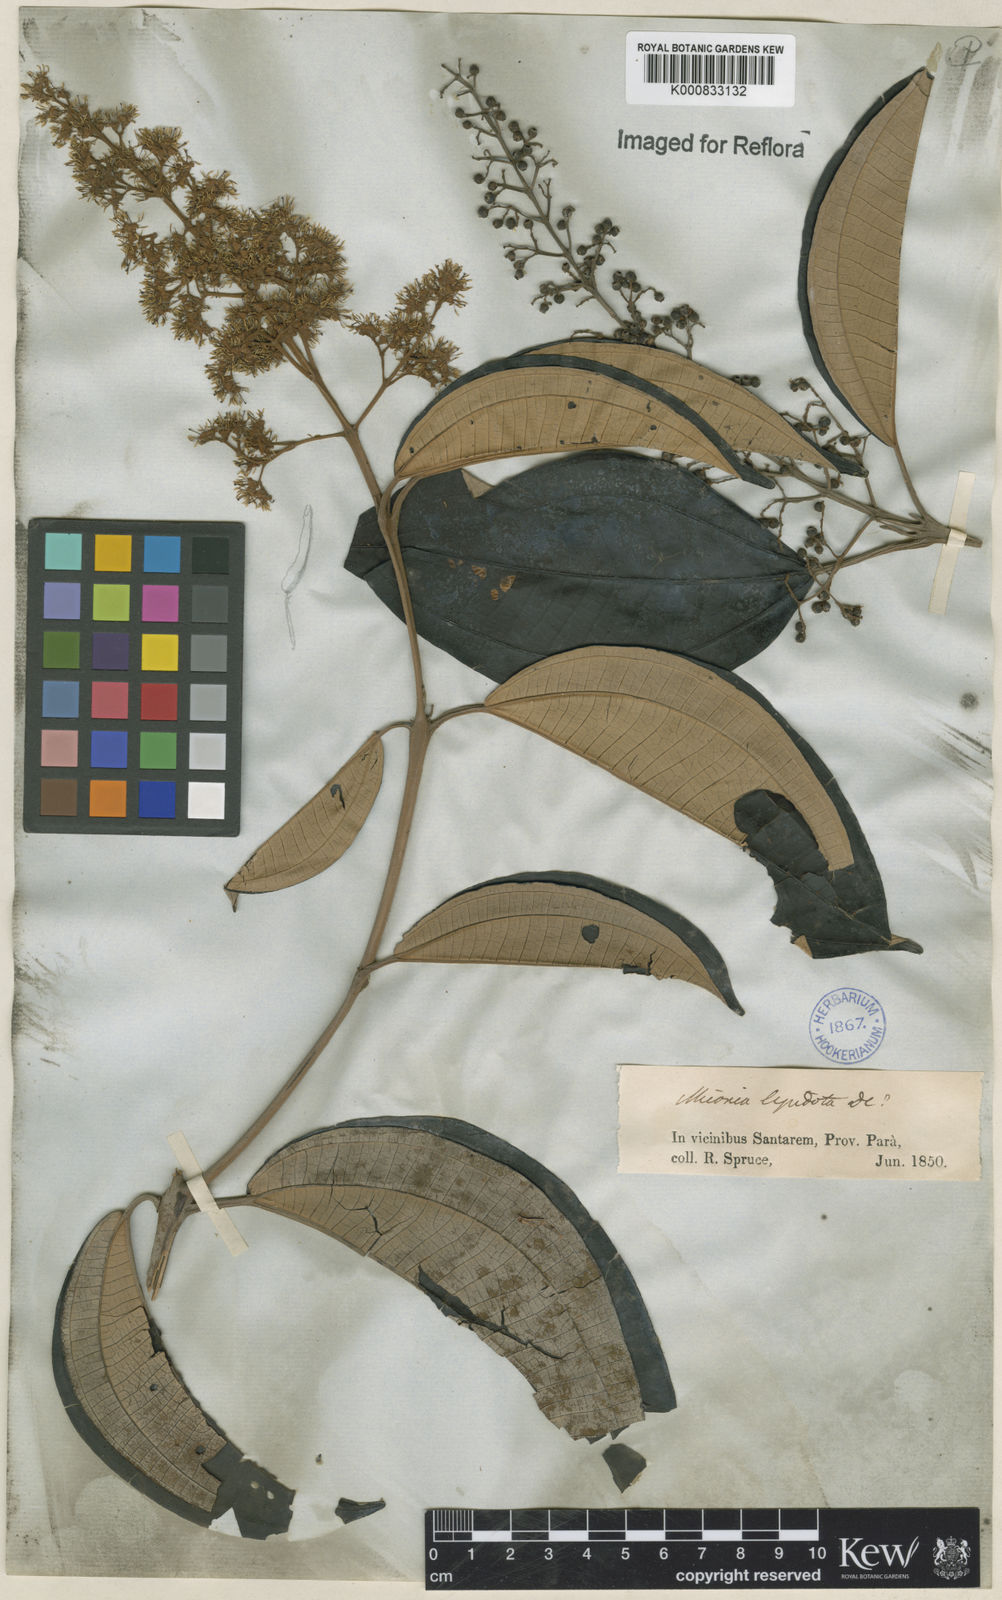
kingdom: Plantae
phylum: Tracheophyta
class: Magnoliopsida
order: Myrtales
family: Melastomataceae
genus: Miconia
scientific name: Miconia lepidota
